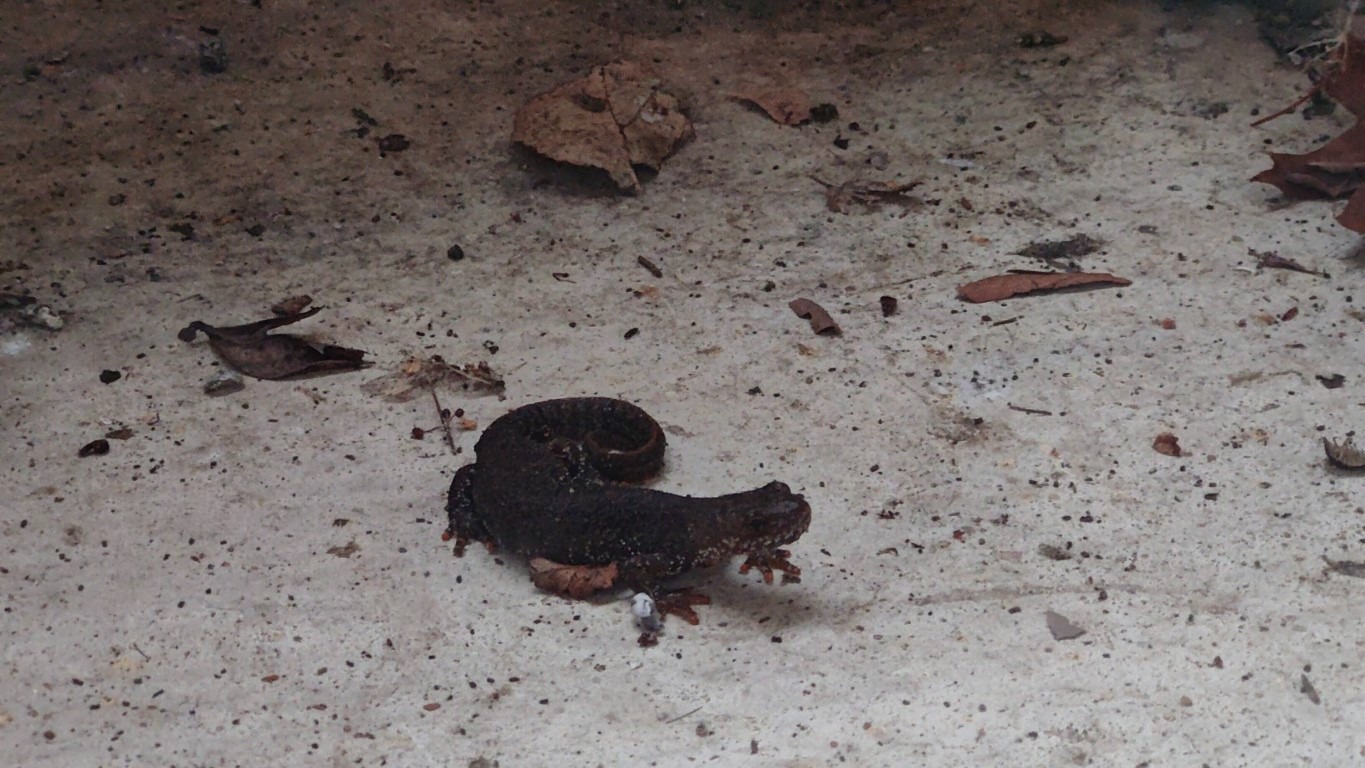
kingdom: Animalia
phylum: Chordata
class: Amphibia
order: Caudata
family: Salamandridae
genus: Triturus
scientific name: Triturus cristatus
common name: Stor vandsalamander
